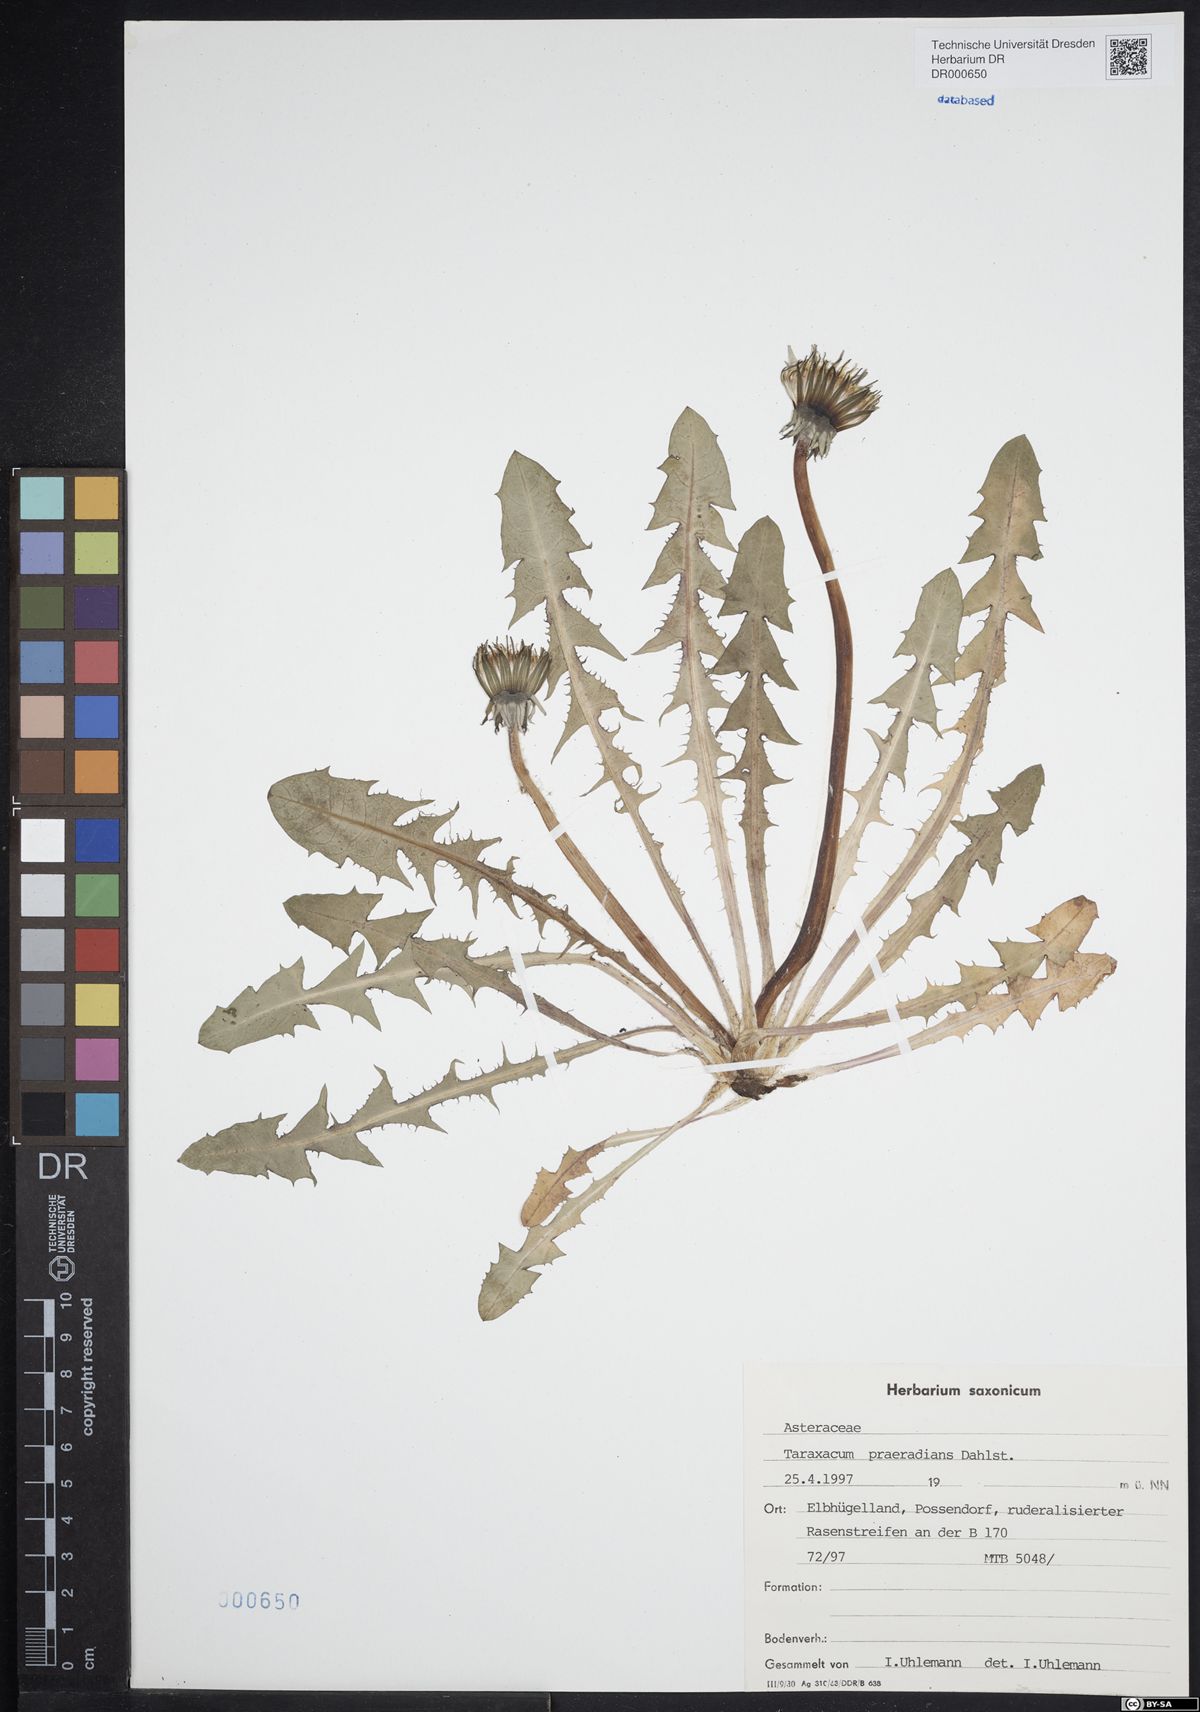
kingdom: Plantae
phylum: Tracheophyta
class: Magnoliopsida
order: Asterales
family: Asteraceae
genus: Taraxacum
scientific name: Taraxacum praeradians
